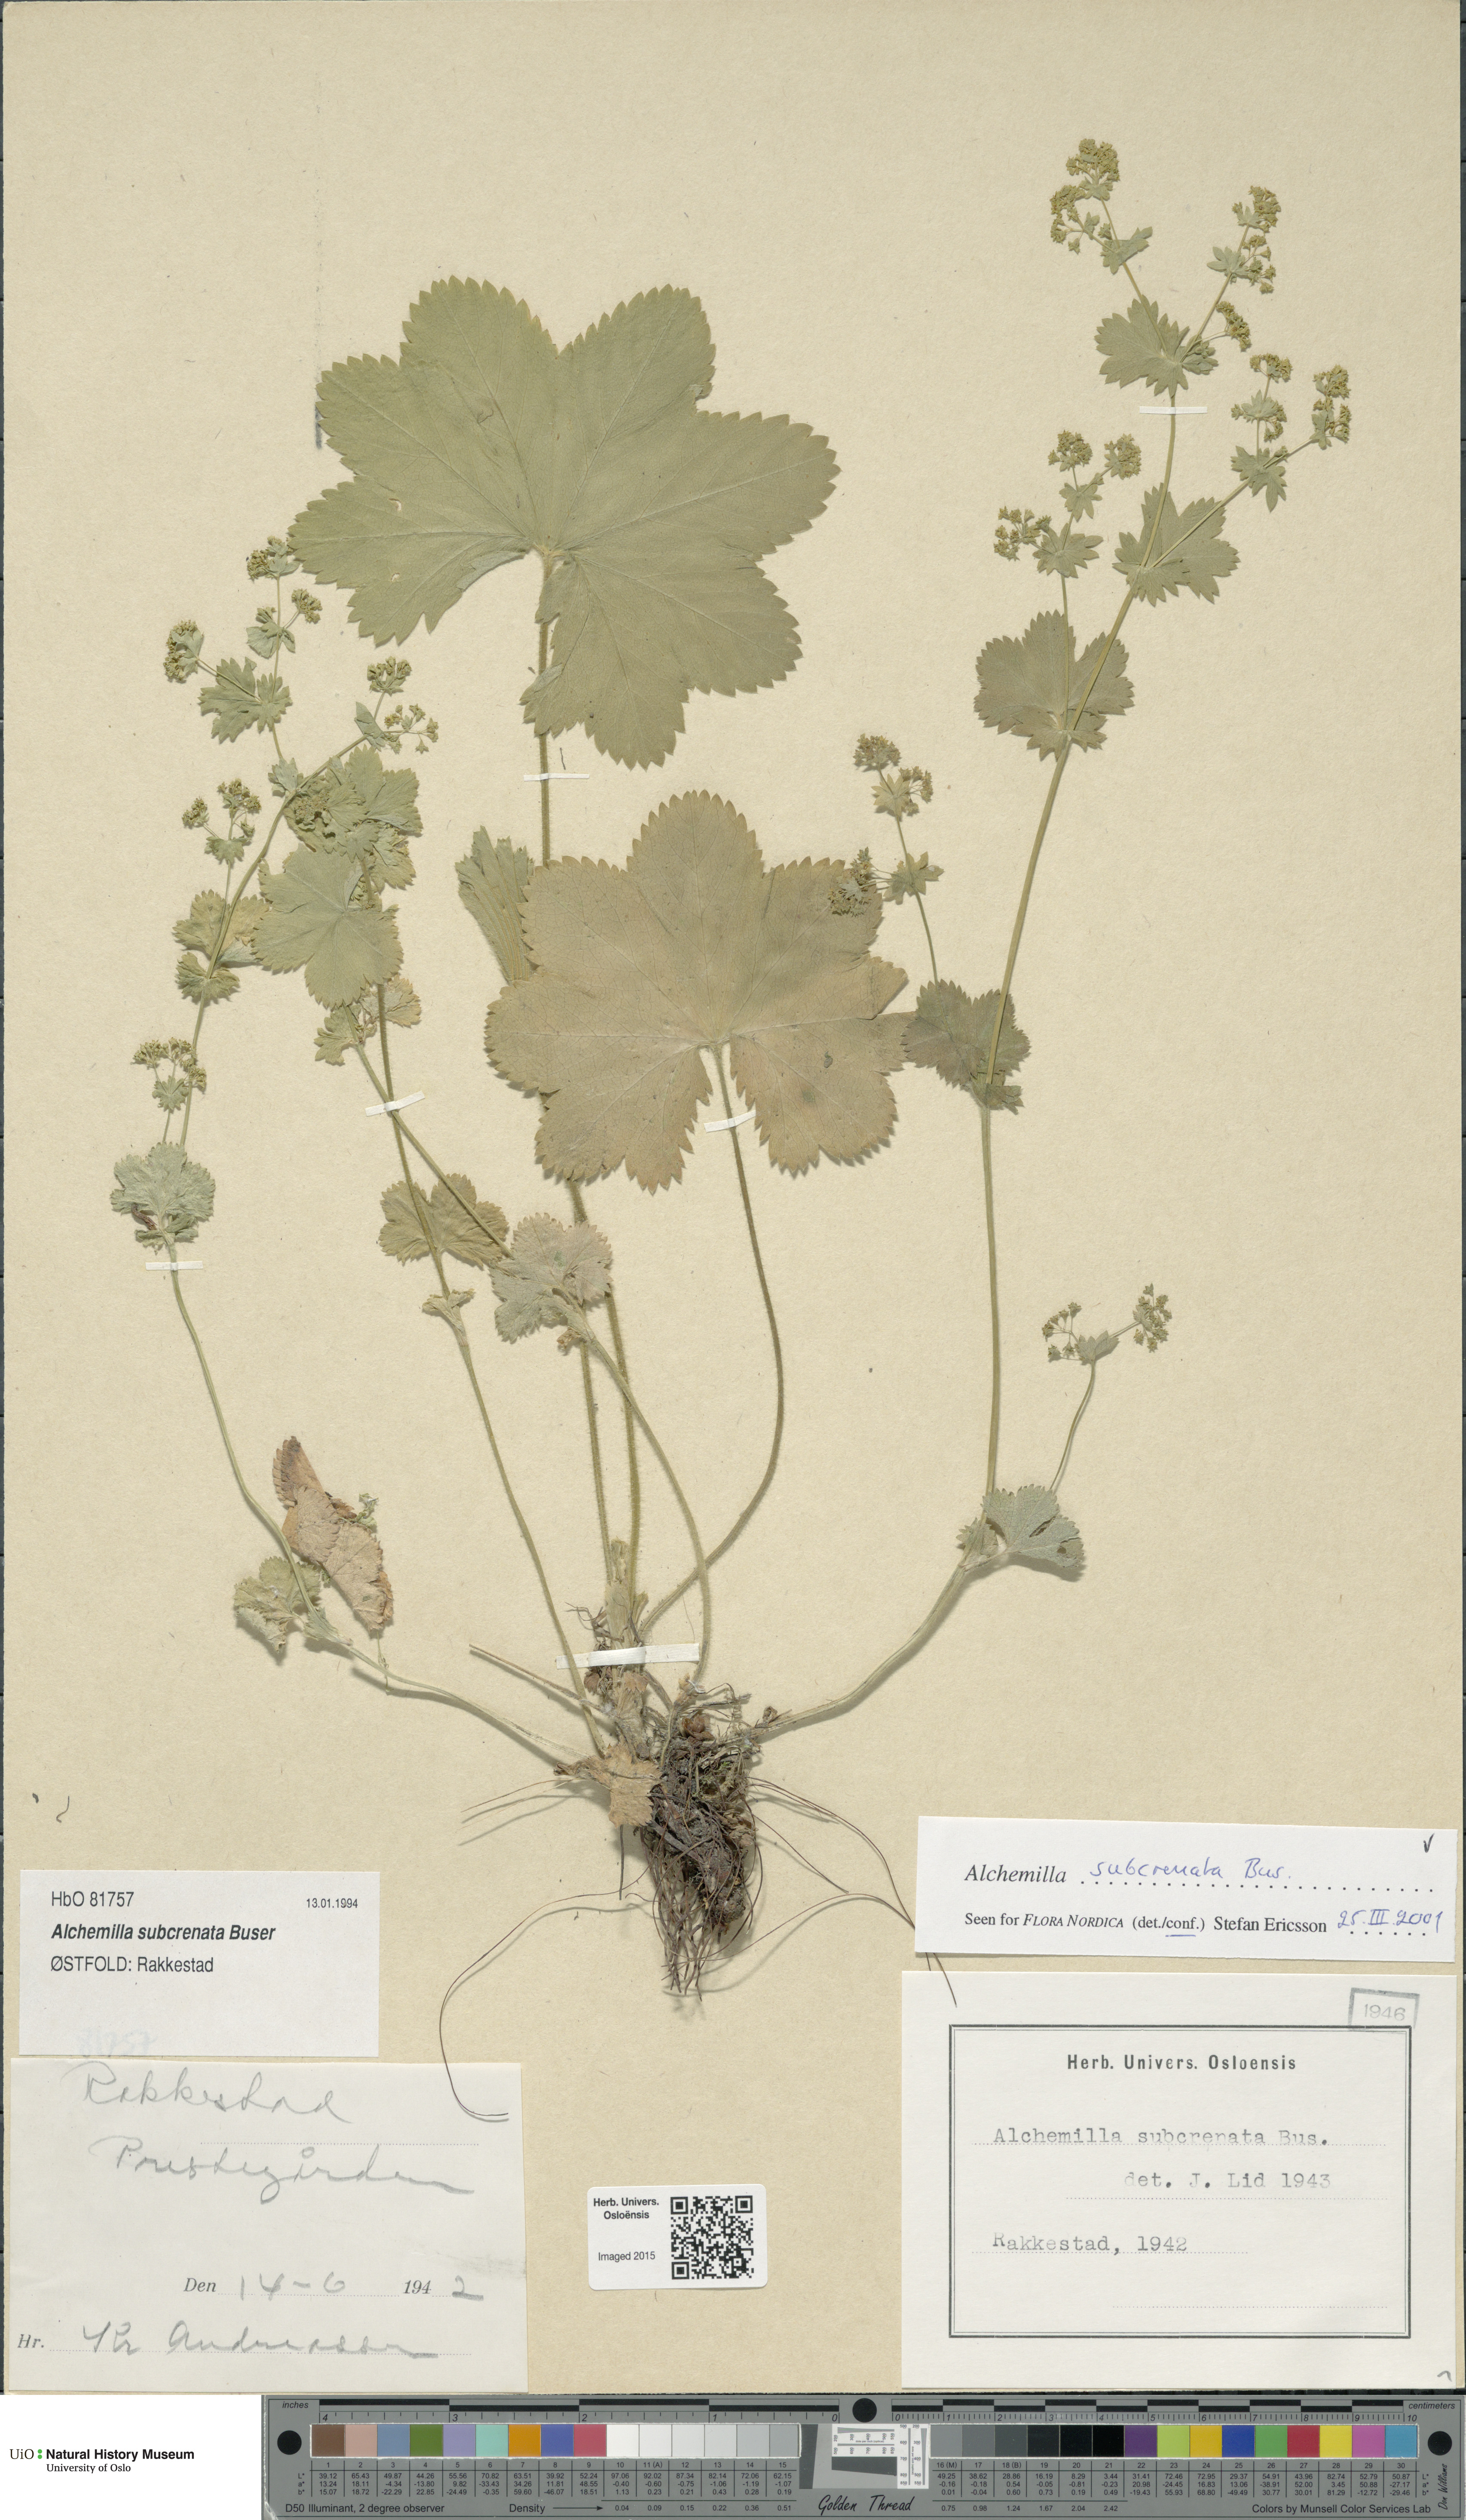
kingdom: Plantae
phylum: Tracheophyta
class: Magnoliopsida
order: Rosales
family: Rosaceae
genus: Alchemilla
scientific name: Alchemilla subcrenata
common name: Broadtooth lady's mantle
